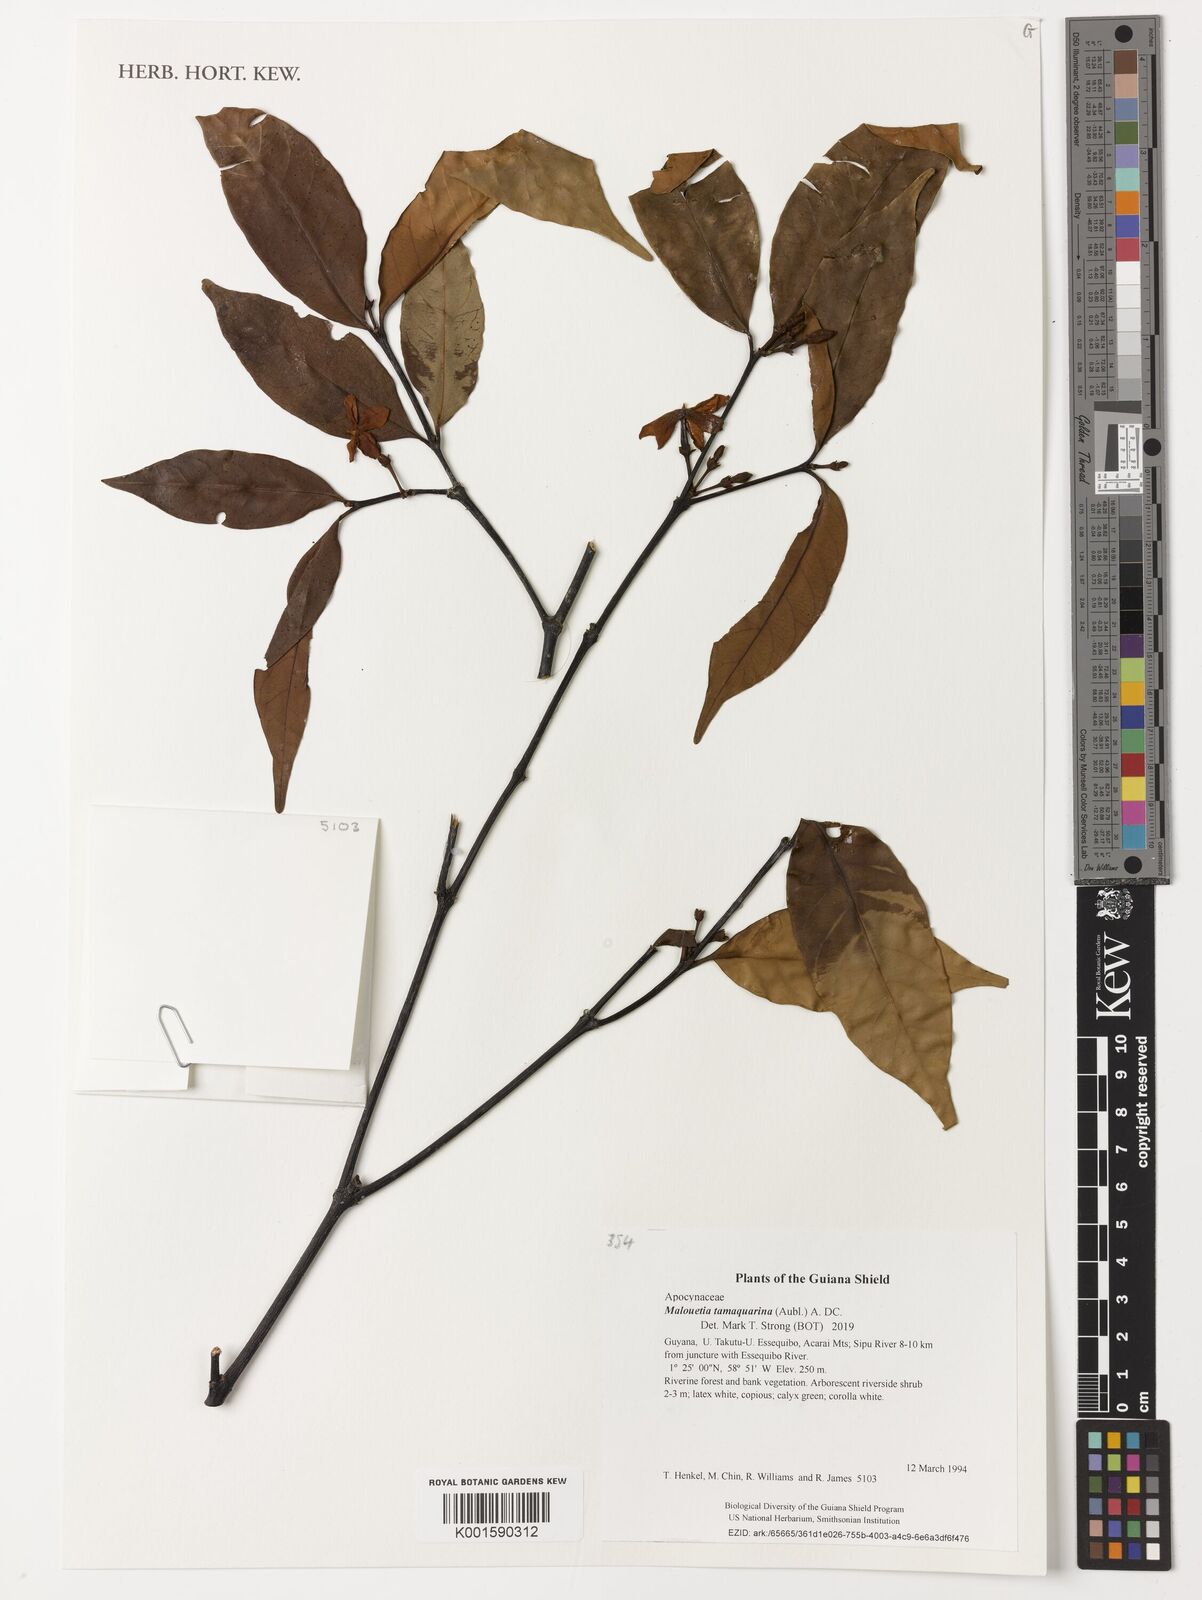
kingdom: Plantae
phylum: Tracheophyta
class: Magnoliopsida
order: Gentianales
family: Apocynaceae
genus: Malouetia
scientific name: Malouetia tamaquarina
